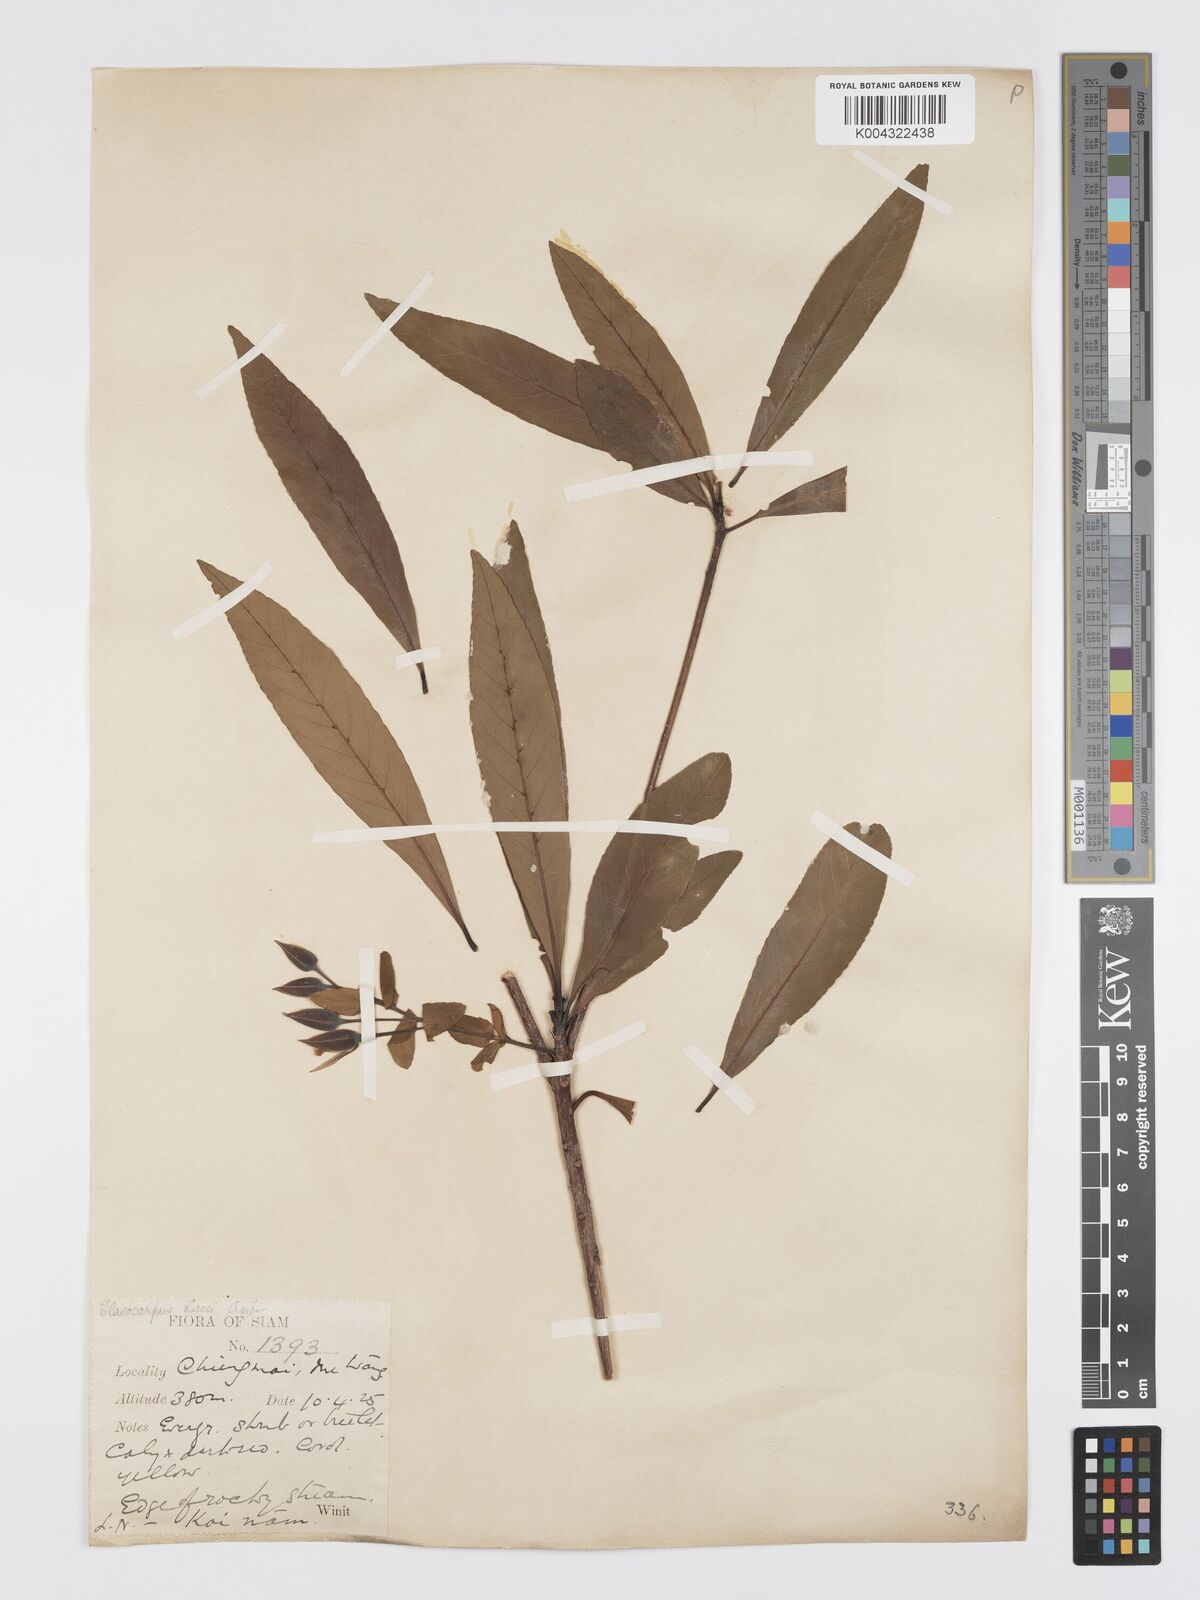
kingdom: Plantae
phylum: Tracheophyta
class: Magnoliopsida
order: Oxalidales
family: Elaeocarpaceae
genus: Elaeocarpus
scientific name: Elaeocarpus hainanensis
